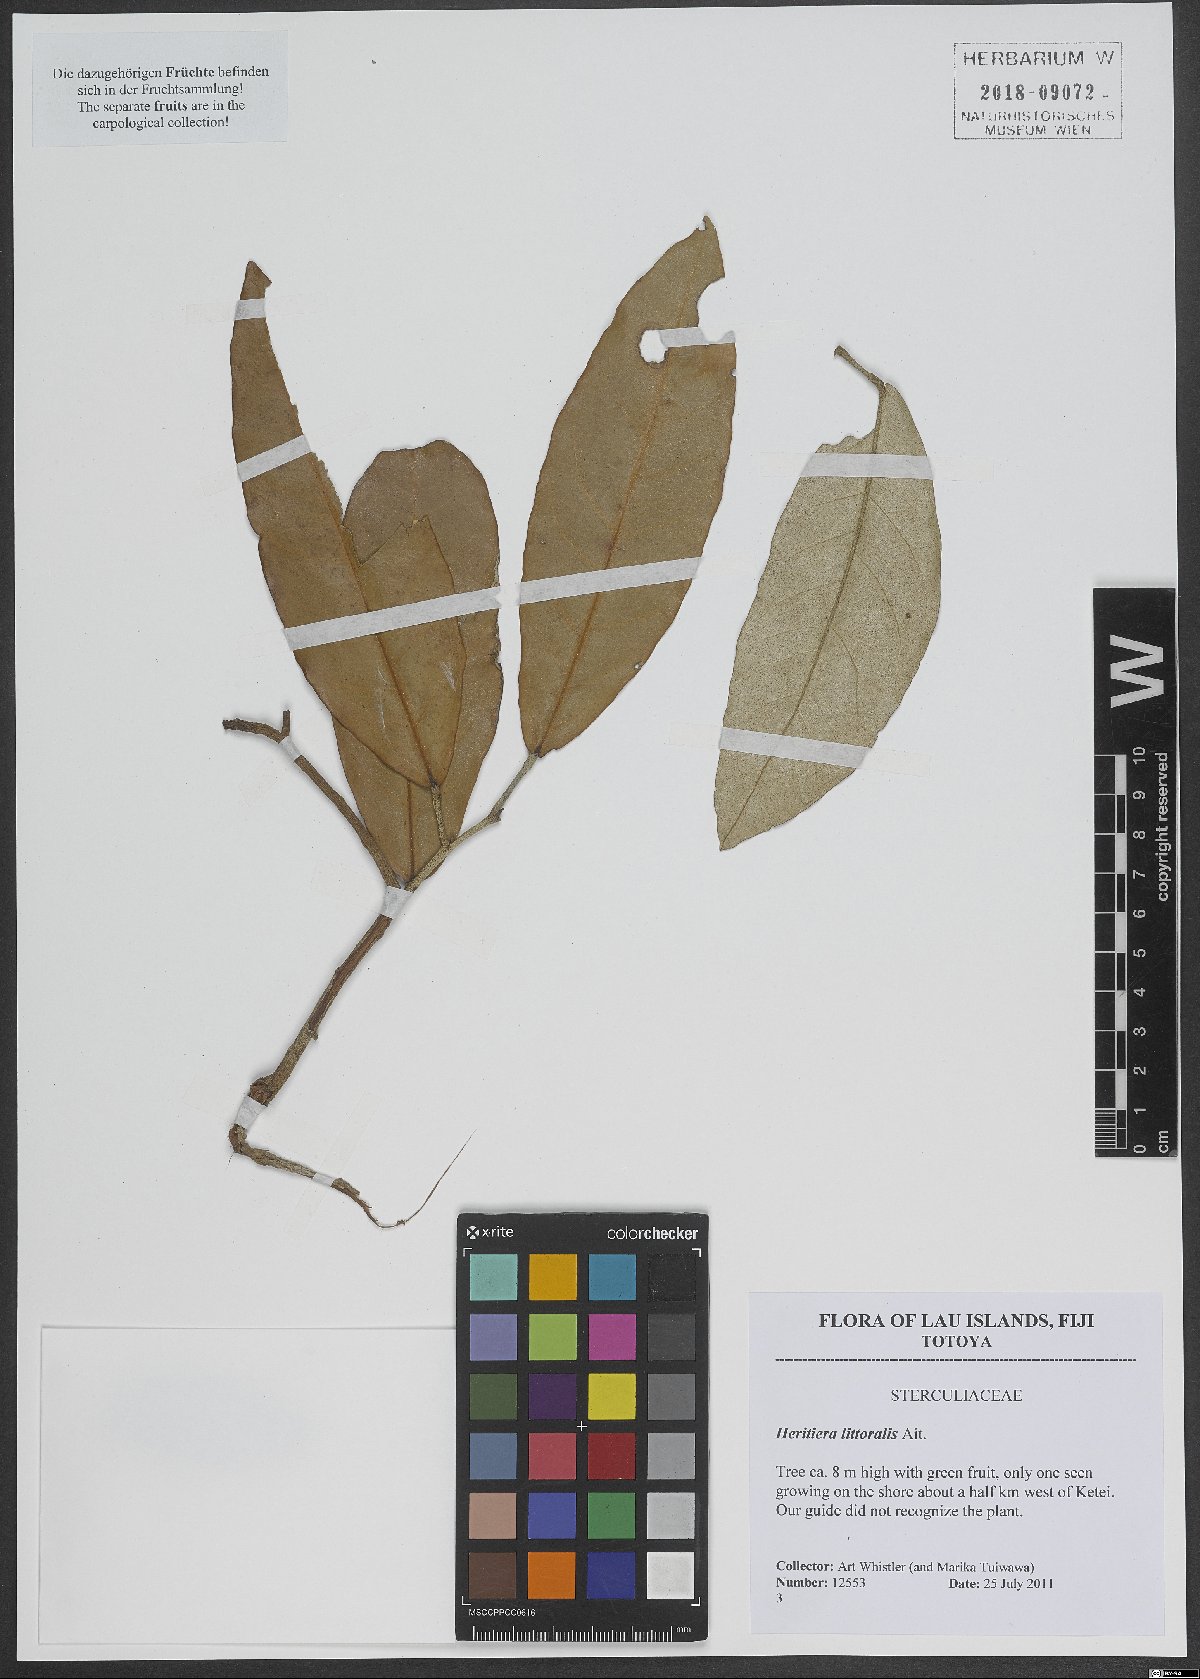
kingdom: Plantae
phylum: Tracheophyta
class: Magnoliopsida
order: Malvales
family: Malvaceae
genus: Heritiera
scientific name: Heritiera littoralis
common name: Looking-glass mangrove
